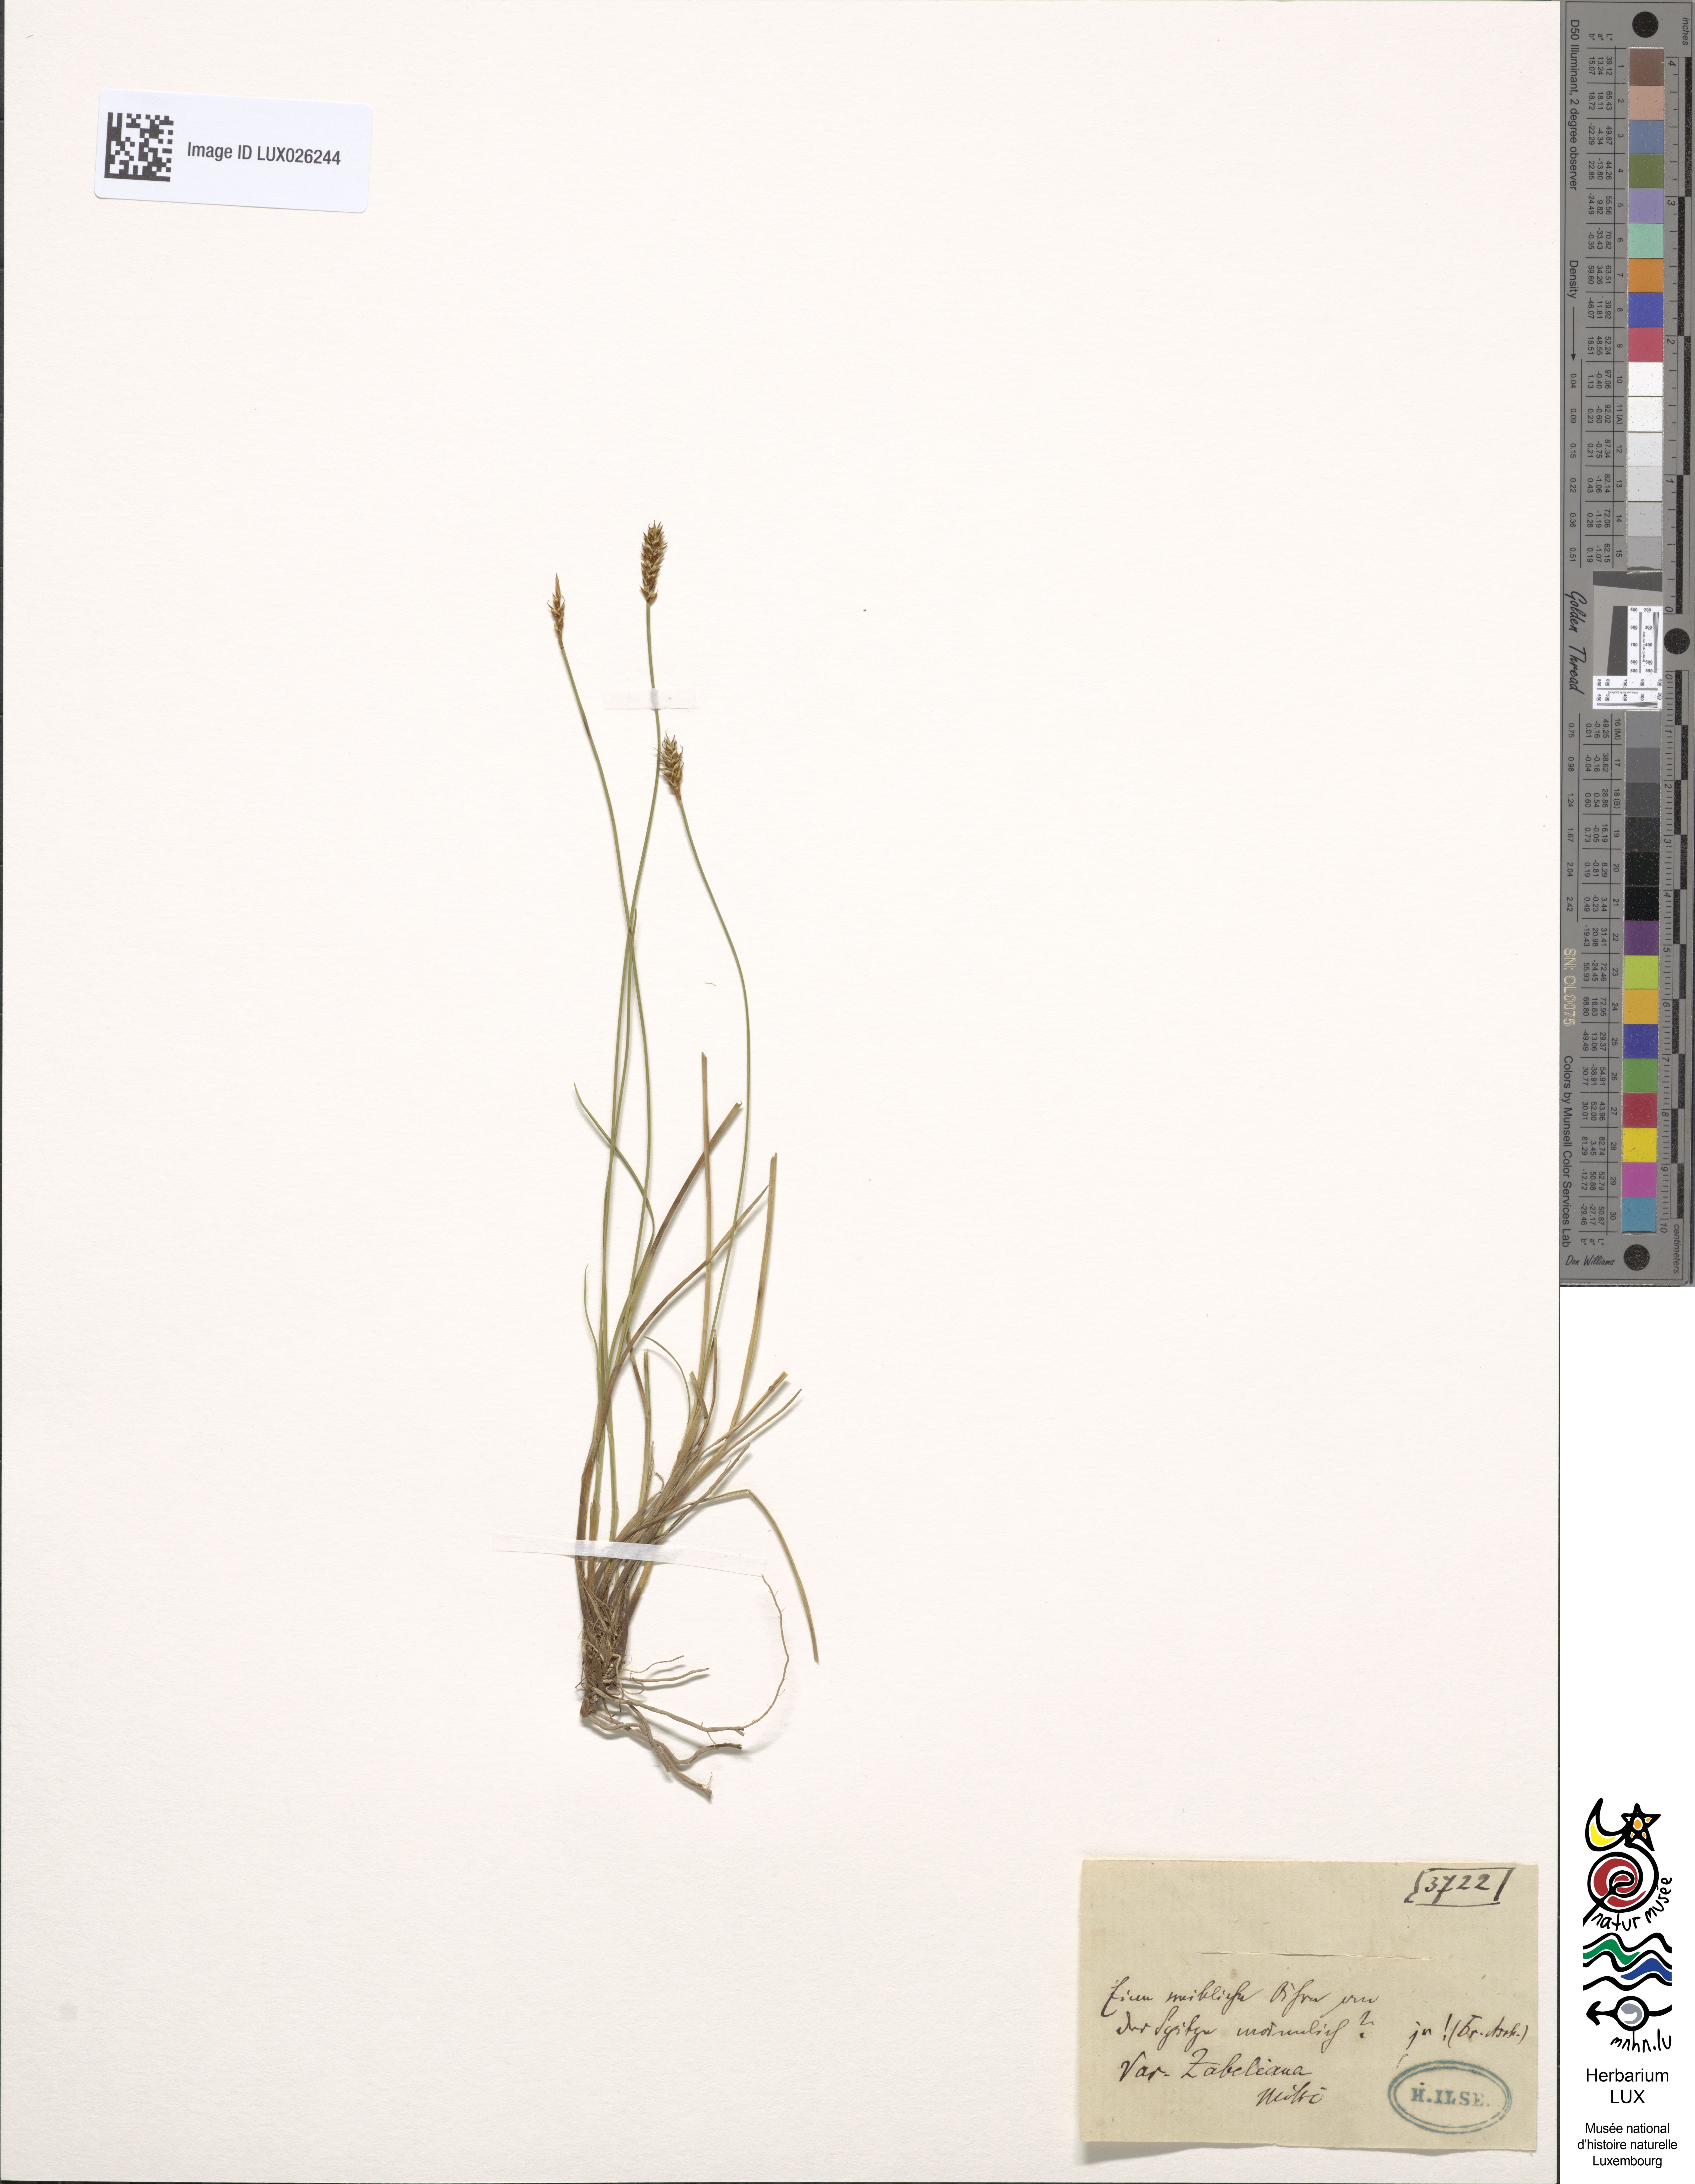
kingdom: Plantae
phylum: Tracheophyta
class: Liliopsida
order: Poales
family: Cyperaceae
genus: Carex
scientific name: Carex davalliana
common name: Davall's sedge
